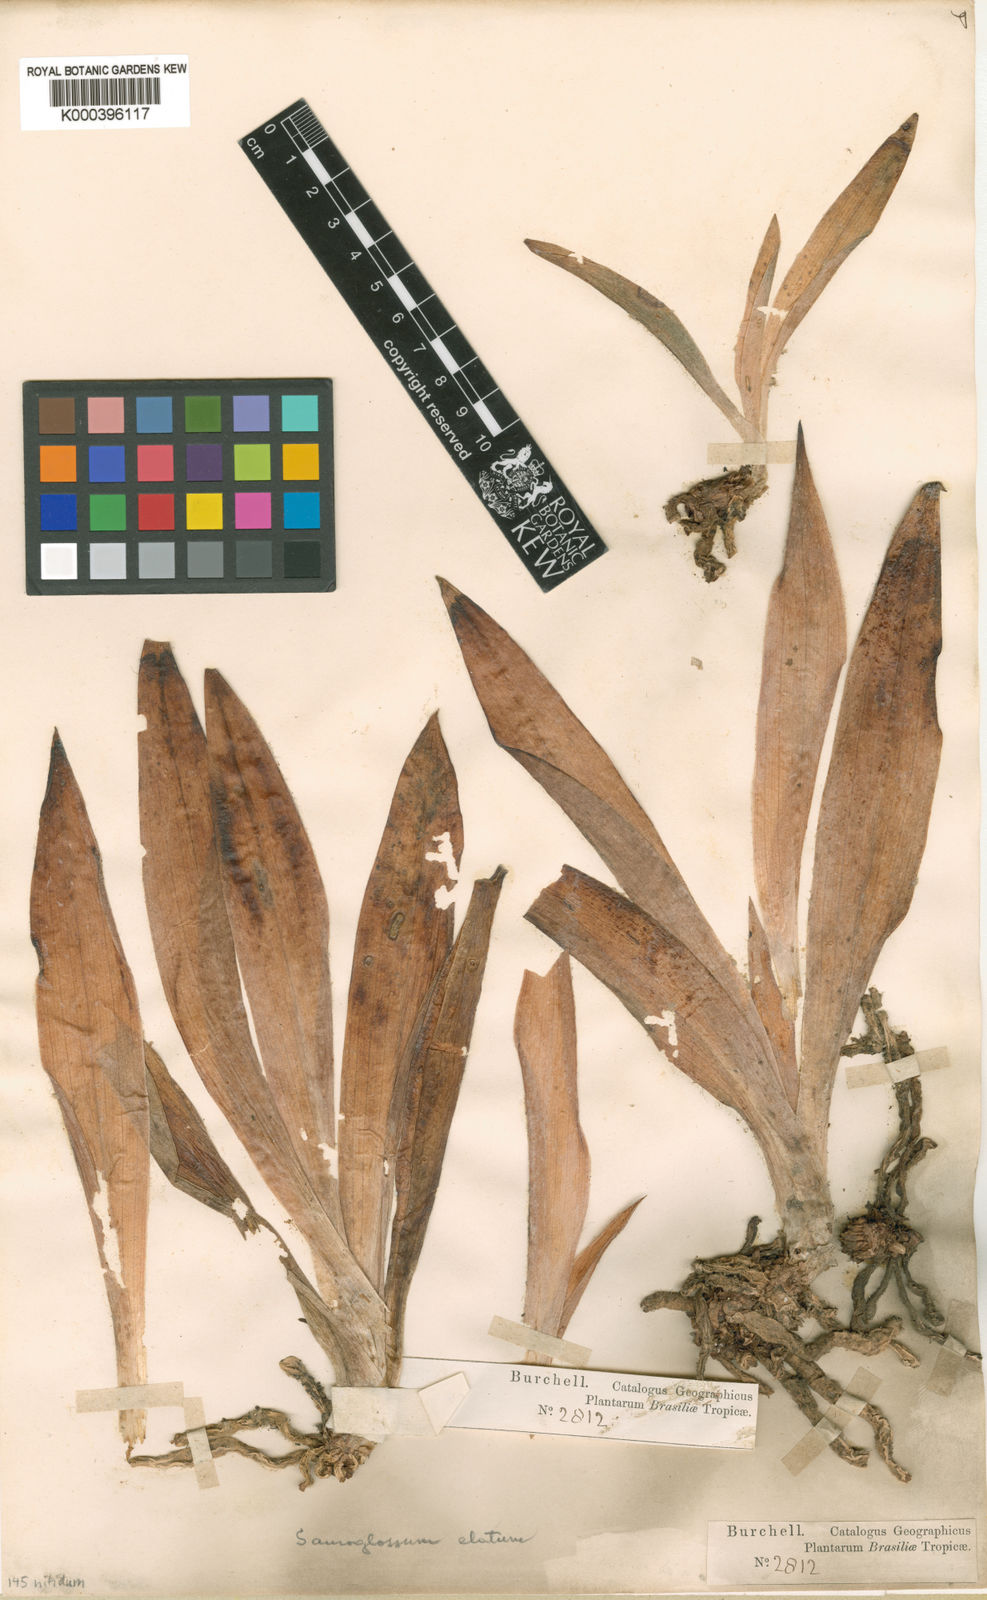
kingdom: Plantae
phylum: Tracheophyta
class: Liliopsida
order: Asparagales
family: Orchidaceae
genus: Buchtienia
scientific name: Buchtienia nitida
